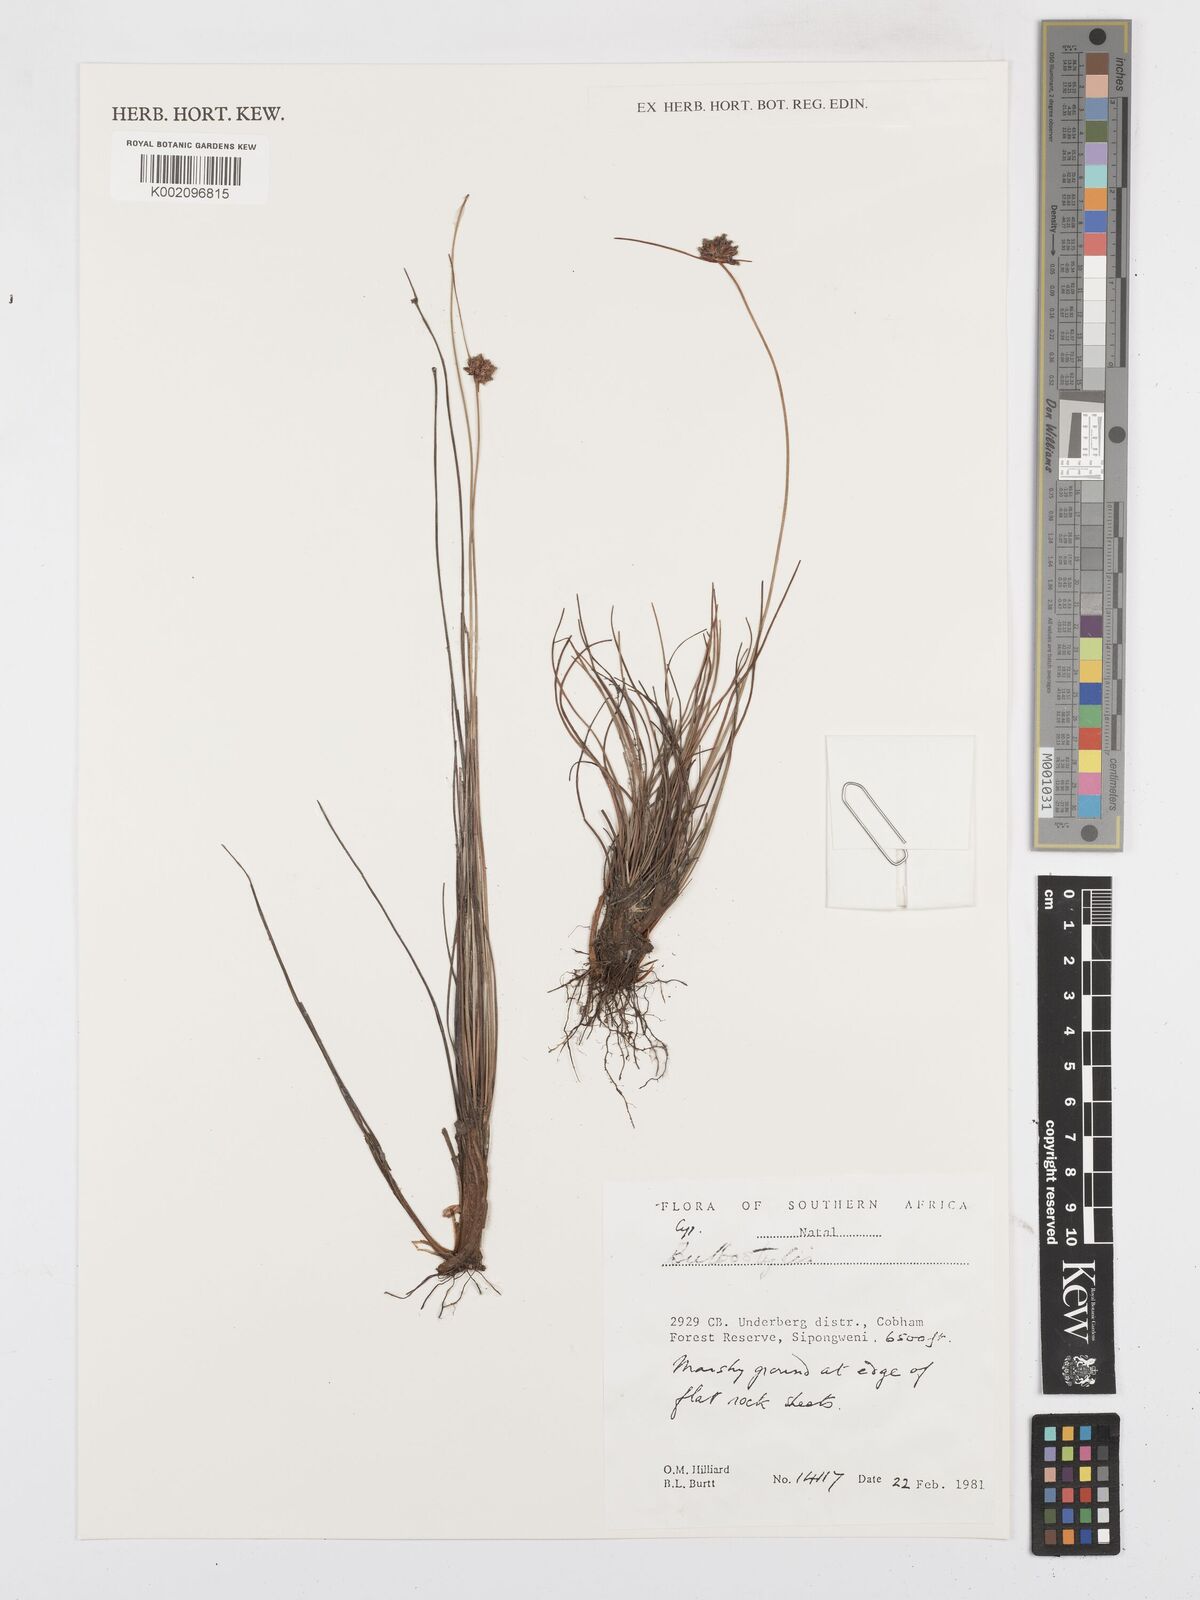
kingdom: Plantae
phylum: Tracheophyta
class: Liliopsida
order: Poales
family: Cyperaceae
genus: Bulbostylis
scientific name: Bulbostylis
